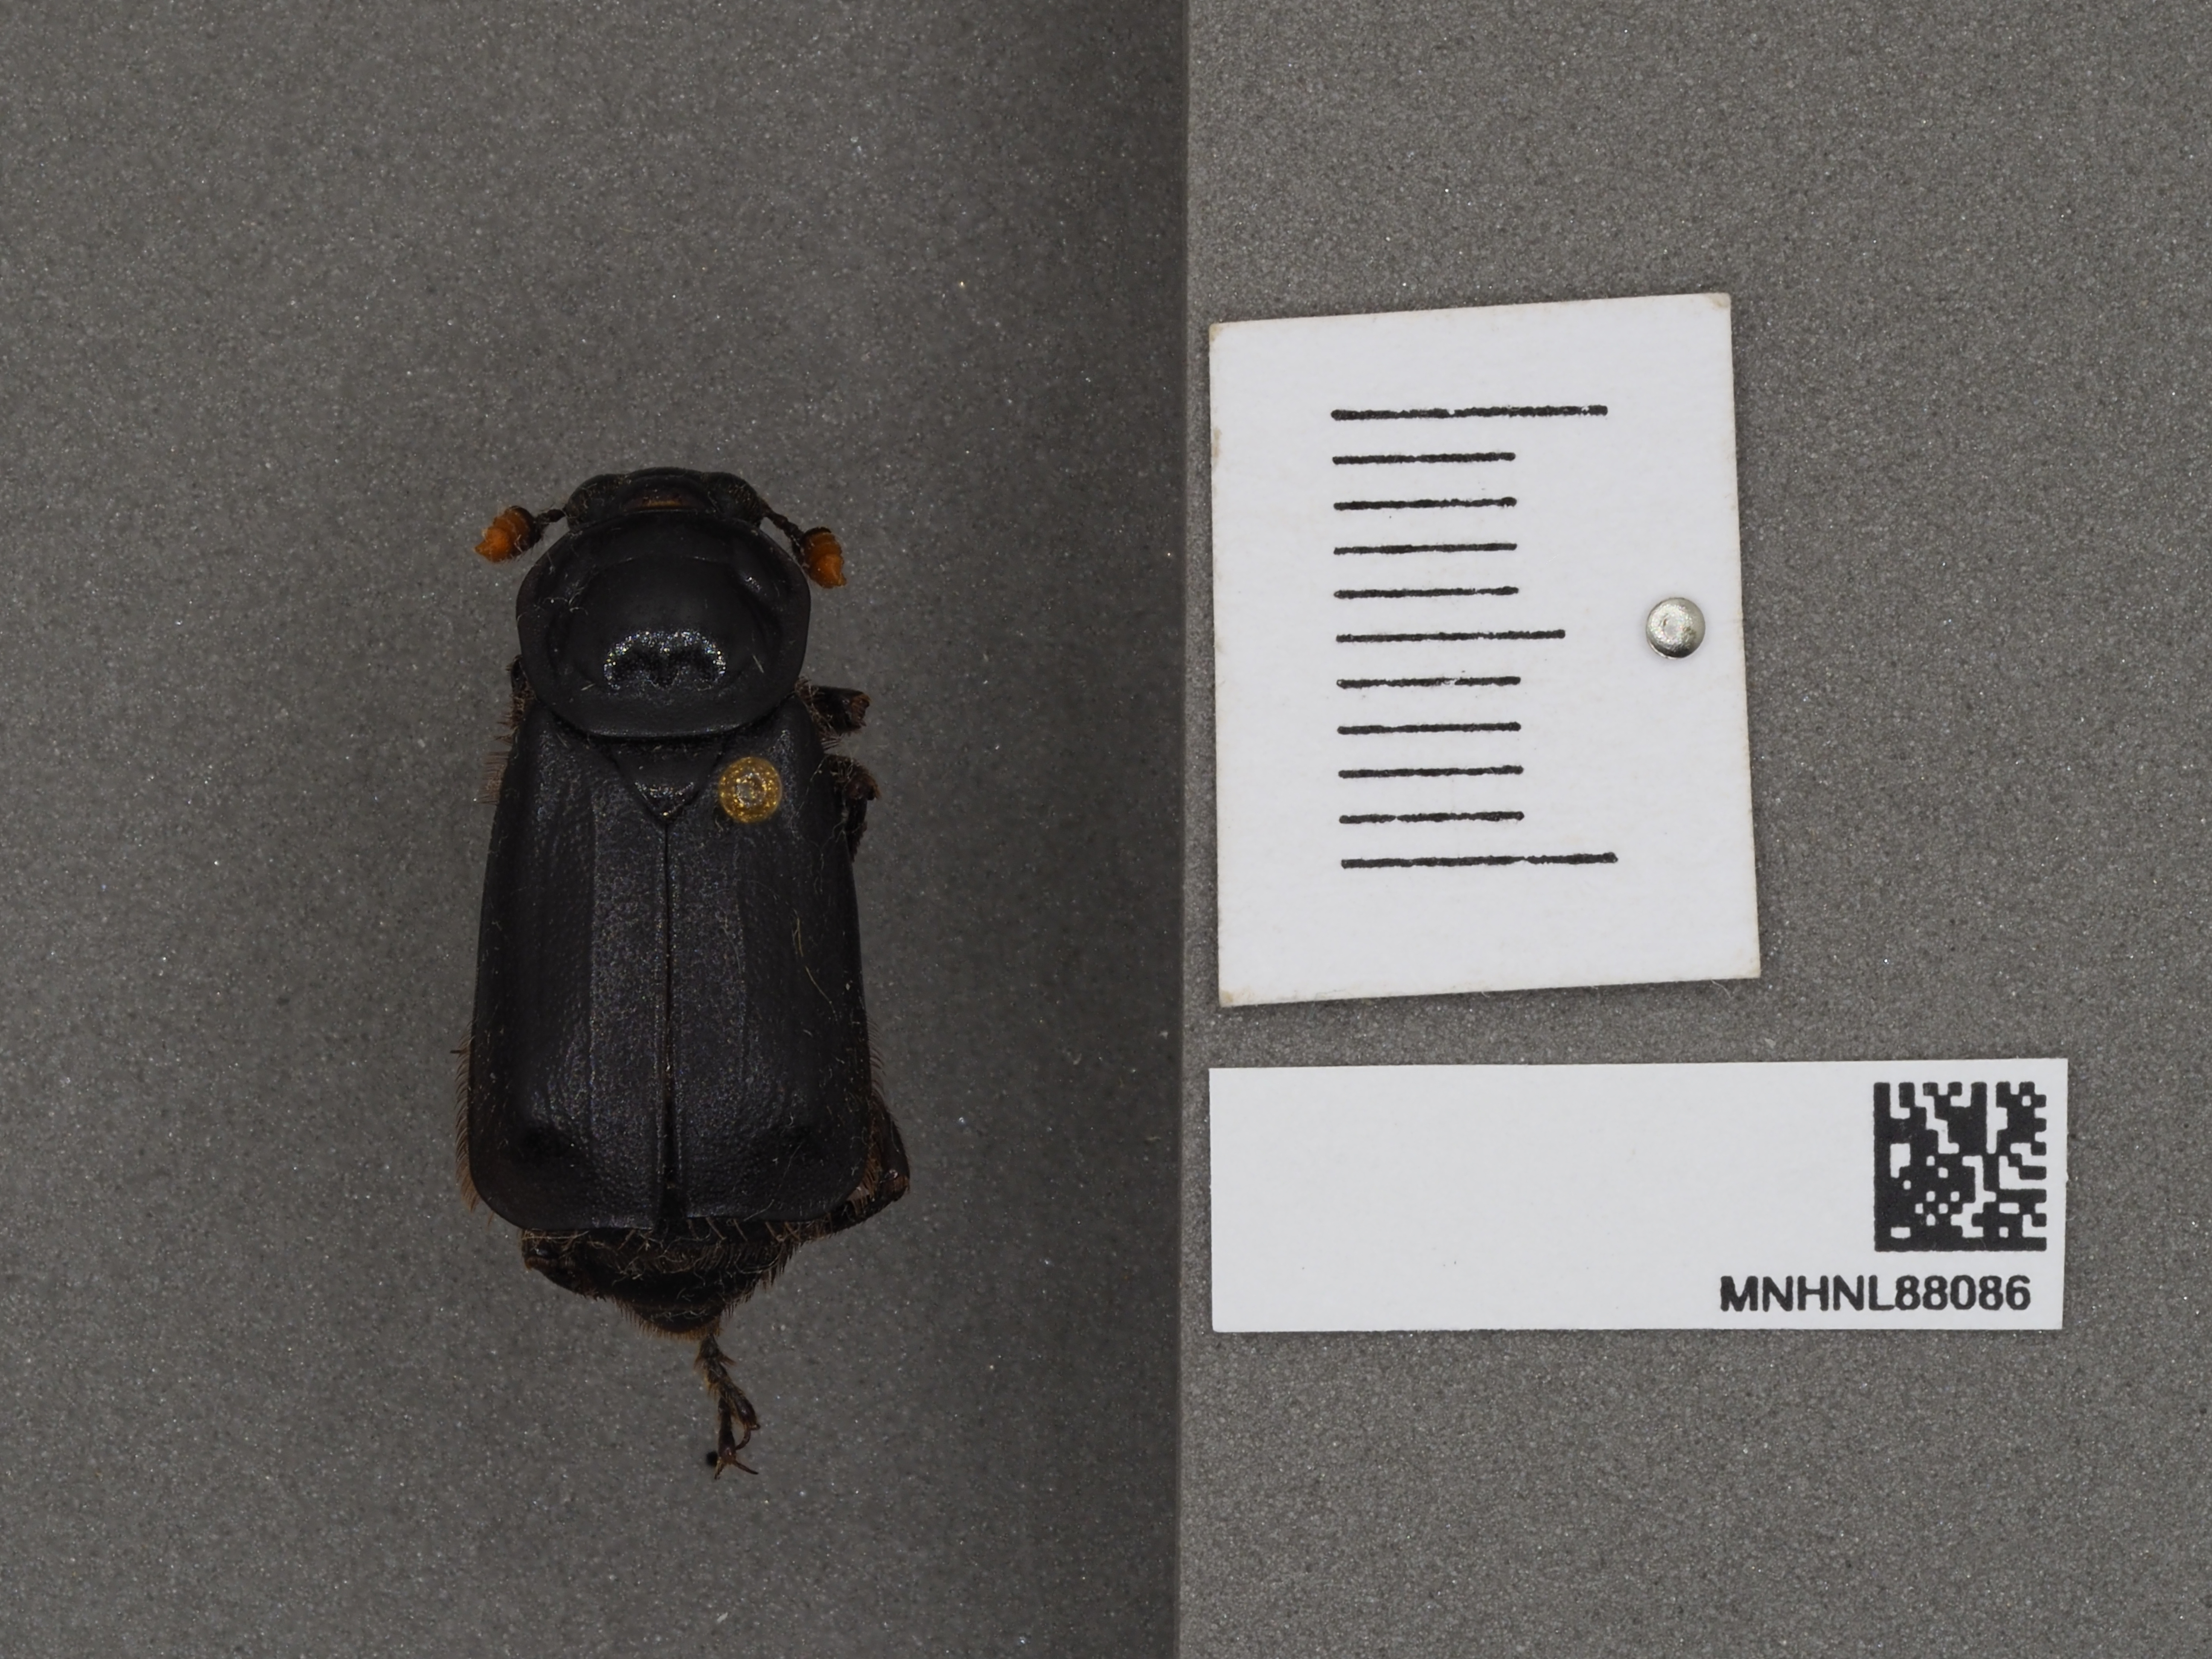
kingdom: Animalia
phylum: Arthropoda
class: Insecta
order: Coleoptera
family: Staphylinidae
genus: Nicrophorus
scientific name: Nicrophorus humator
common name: Black sexton beetle
